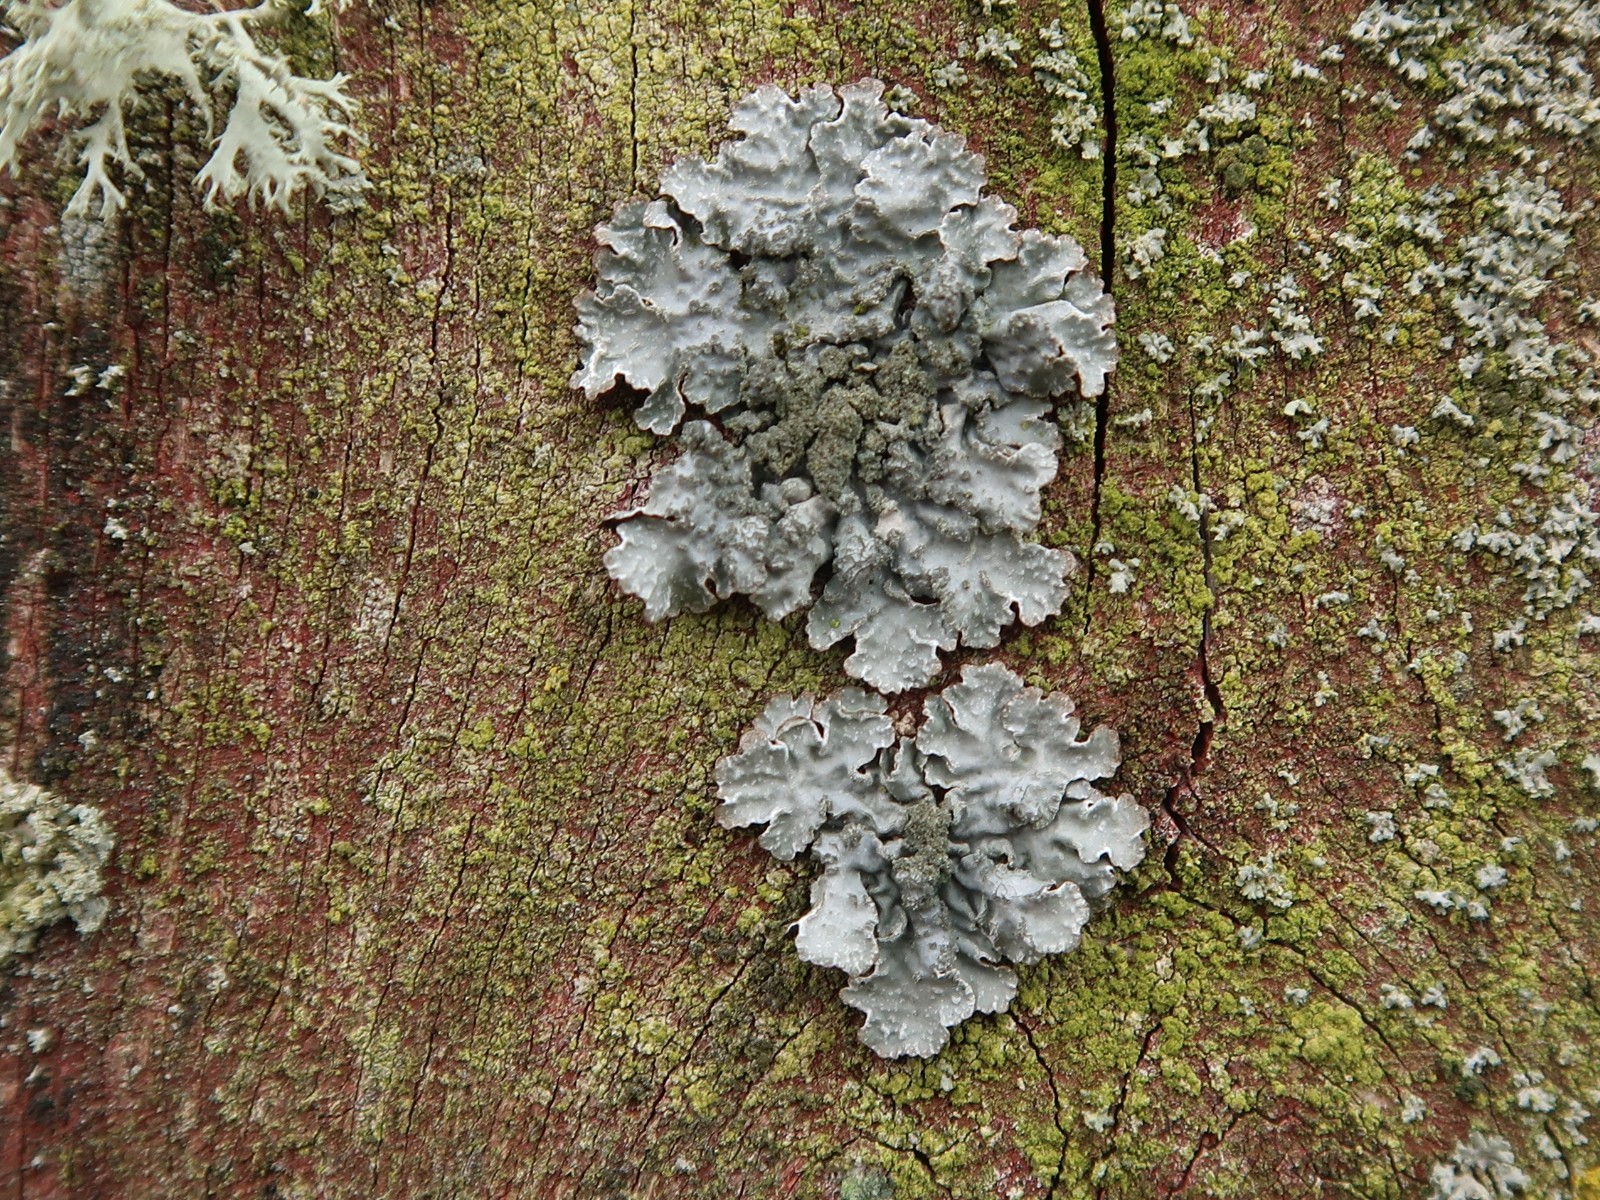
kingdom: Fungi
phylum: Ascomycota
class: Lecanoromycetes
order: Lecanorales
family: Parmeliaceae
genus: Parmelia
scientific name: Parmelia sulcata
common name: rynket skållav
